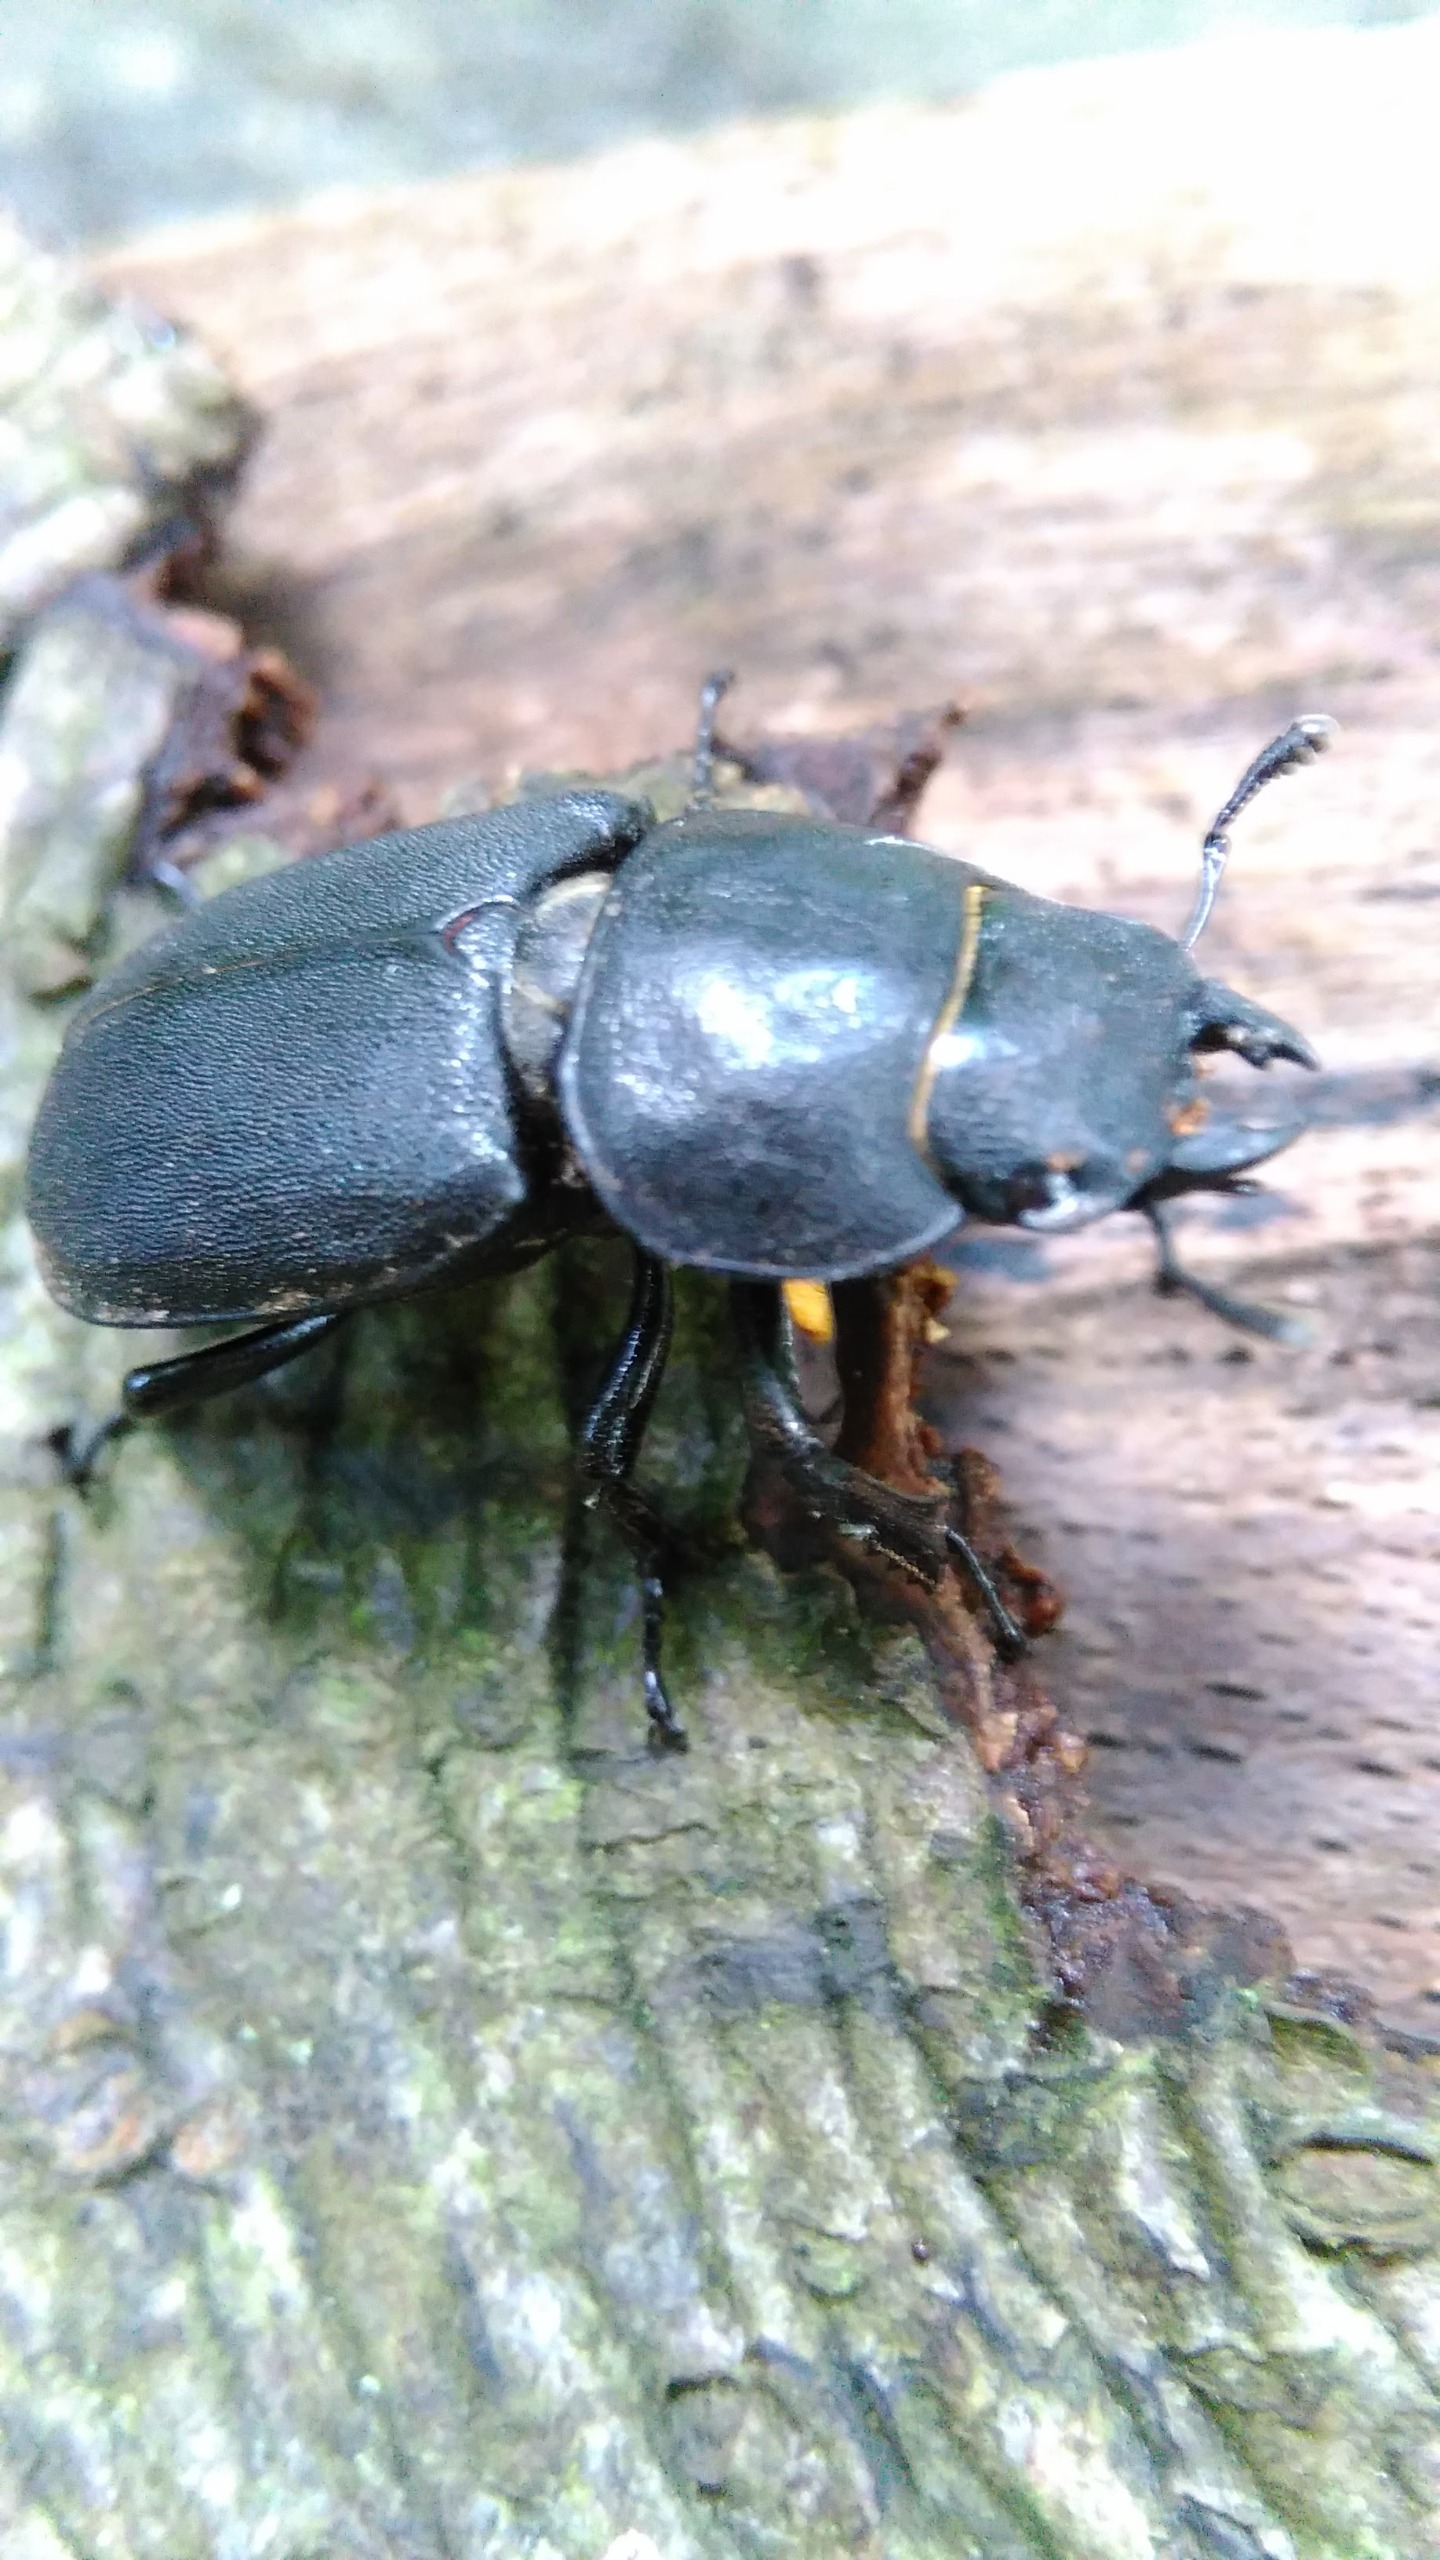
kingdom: Animalia
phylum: Arthropoda
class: Insecta
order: Coleoptera
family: Lucanidae
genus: Dorcus
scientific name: Dorcus parallelipipedus
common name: Bøghjort
